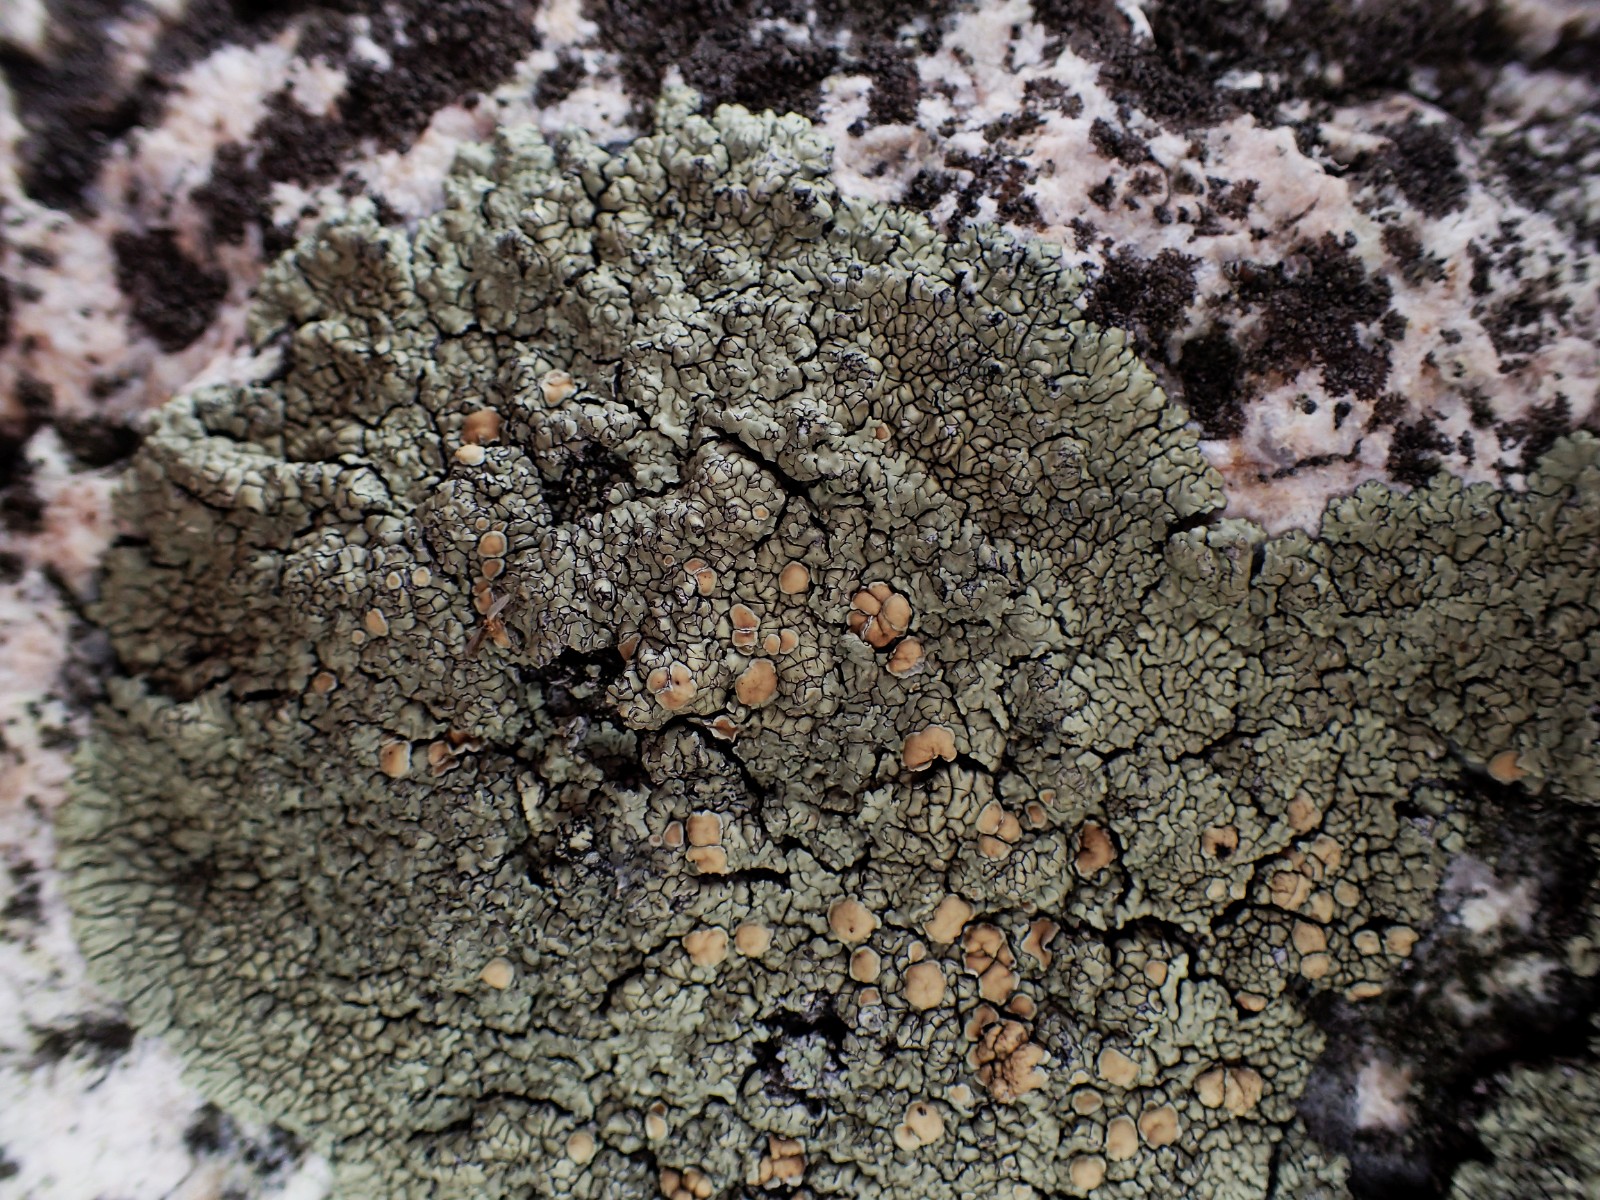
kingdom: Fungi
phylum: Ascomycota
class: Lecanoromycetes
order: Lecanorales
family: Lecanoraceae
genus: Protoparmeliopsis
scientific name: Protoparmeliopsis muralis
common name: randfliget kantskivelav
